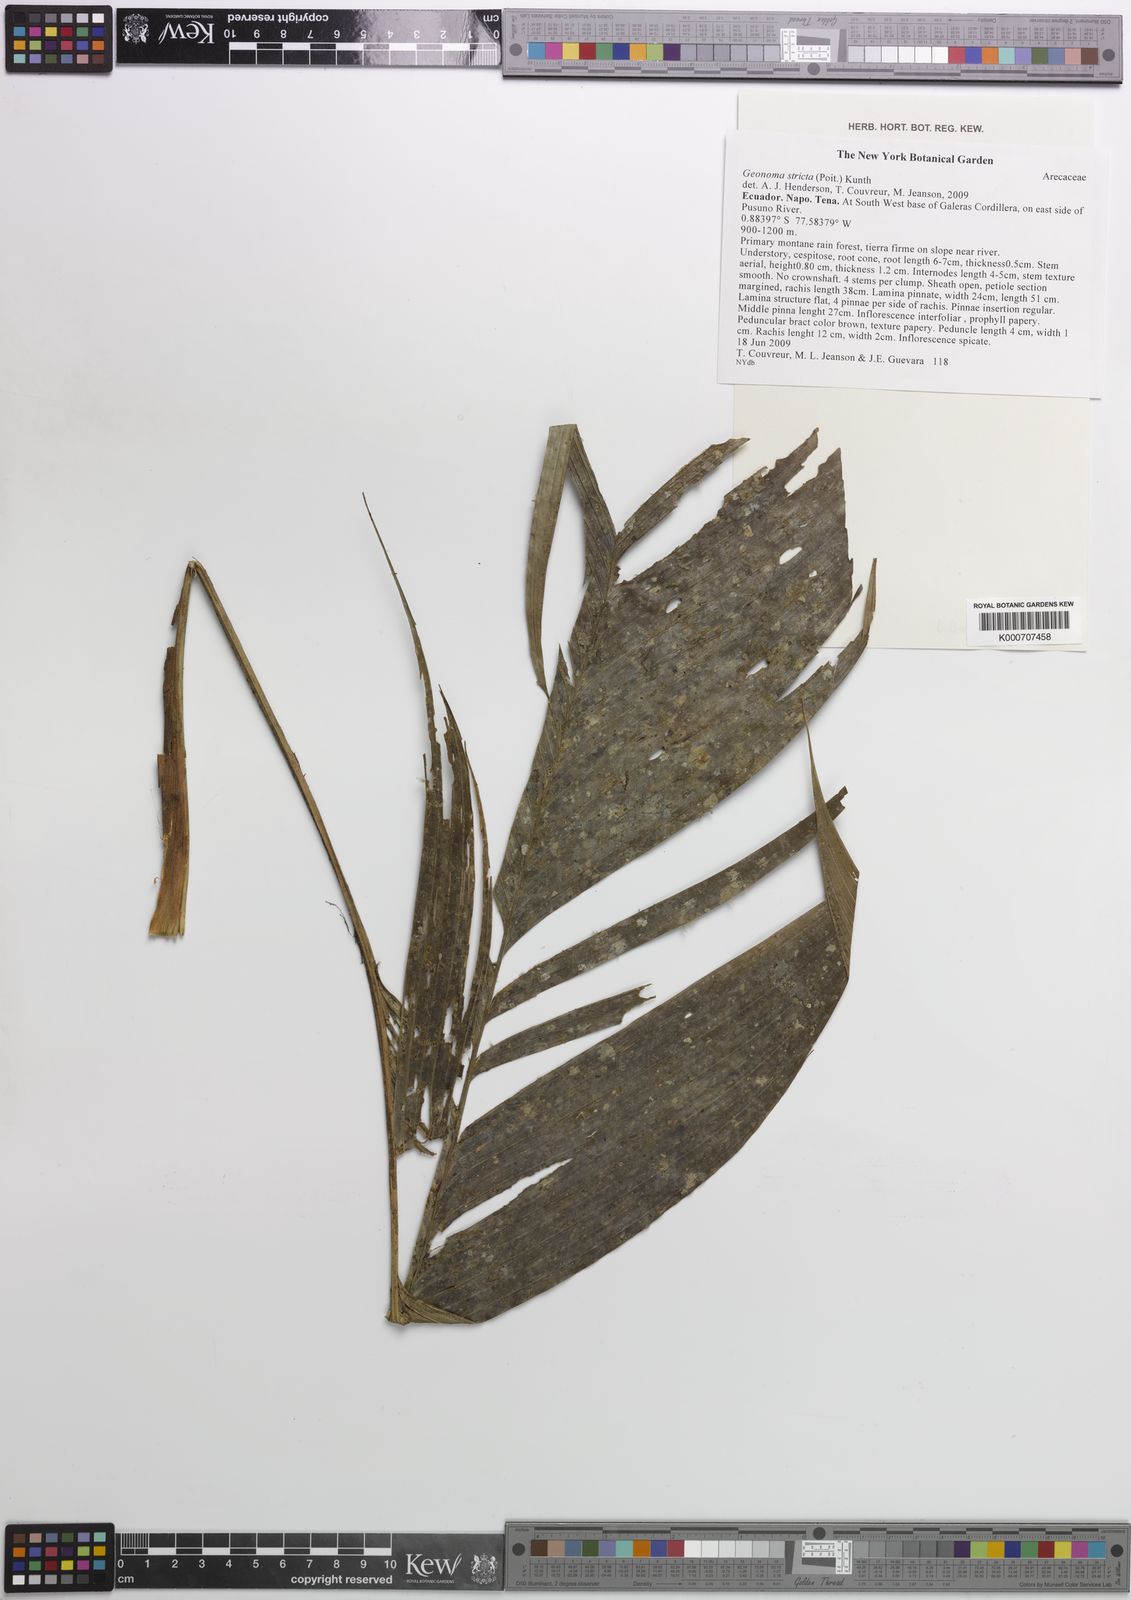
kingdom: Plantae
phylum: Tracheophyta
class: Liliopsida
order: Arecales
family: Arecaceae
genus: Geonoma
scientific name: Geonoma stricta
